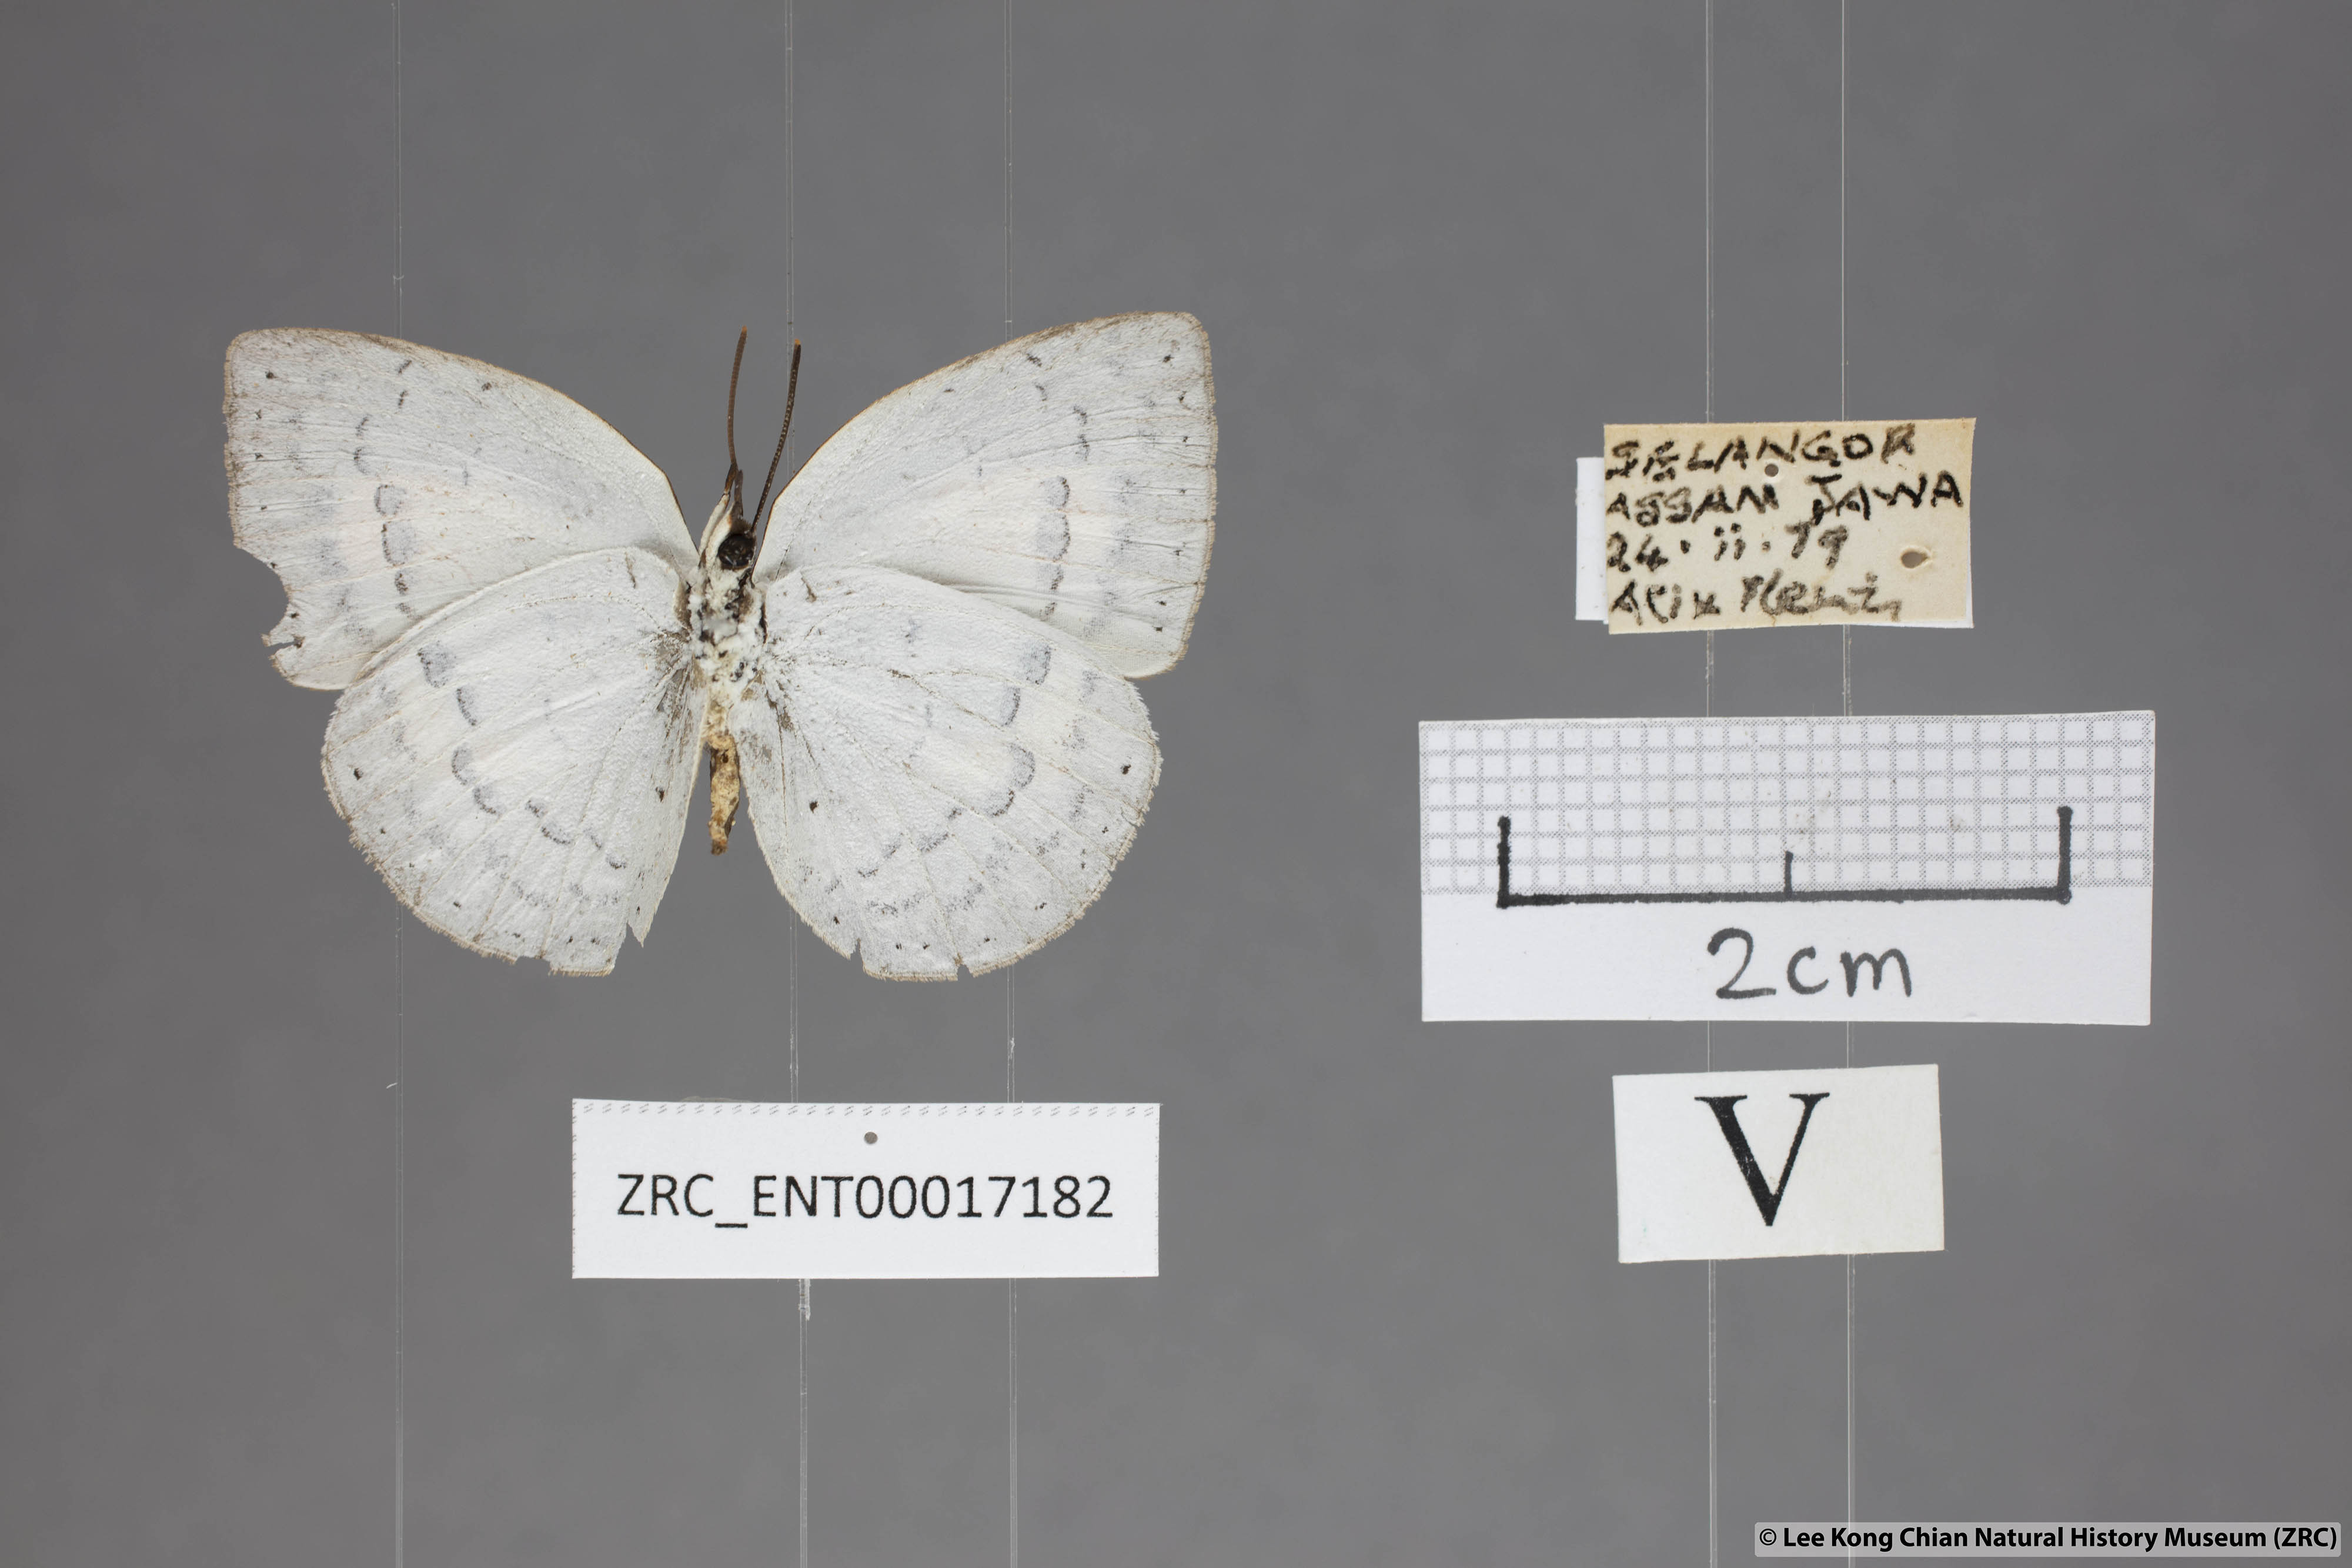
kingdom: Animalia
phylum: Arthropoda
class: Insecta
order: Lepidoptera
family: Lycaenidae
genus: Curetis
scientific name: Curetis saronis
